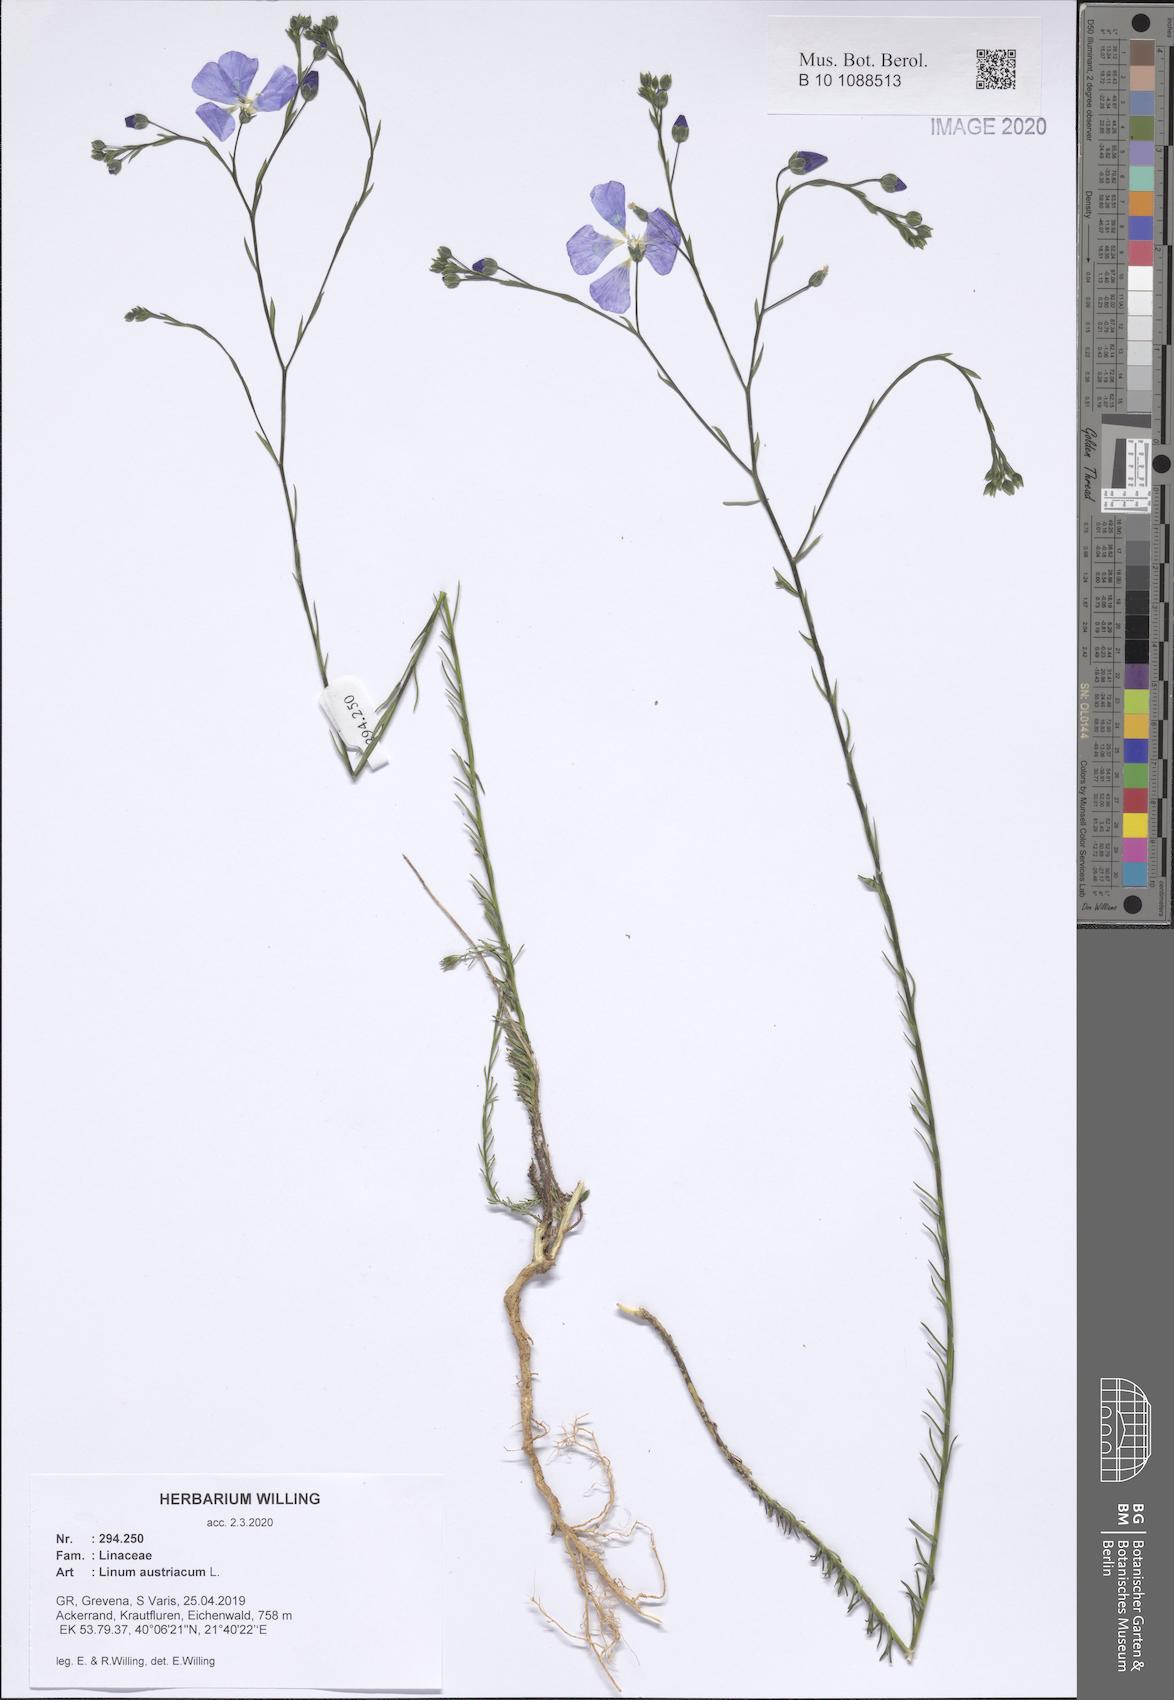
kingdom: Plantae
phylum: Tracheophyta
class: Magnoliopsida
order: Malpighiales
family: Linaceae
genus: Linum
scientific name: Linum austriacum
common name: Austrian flax
